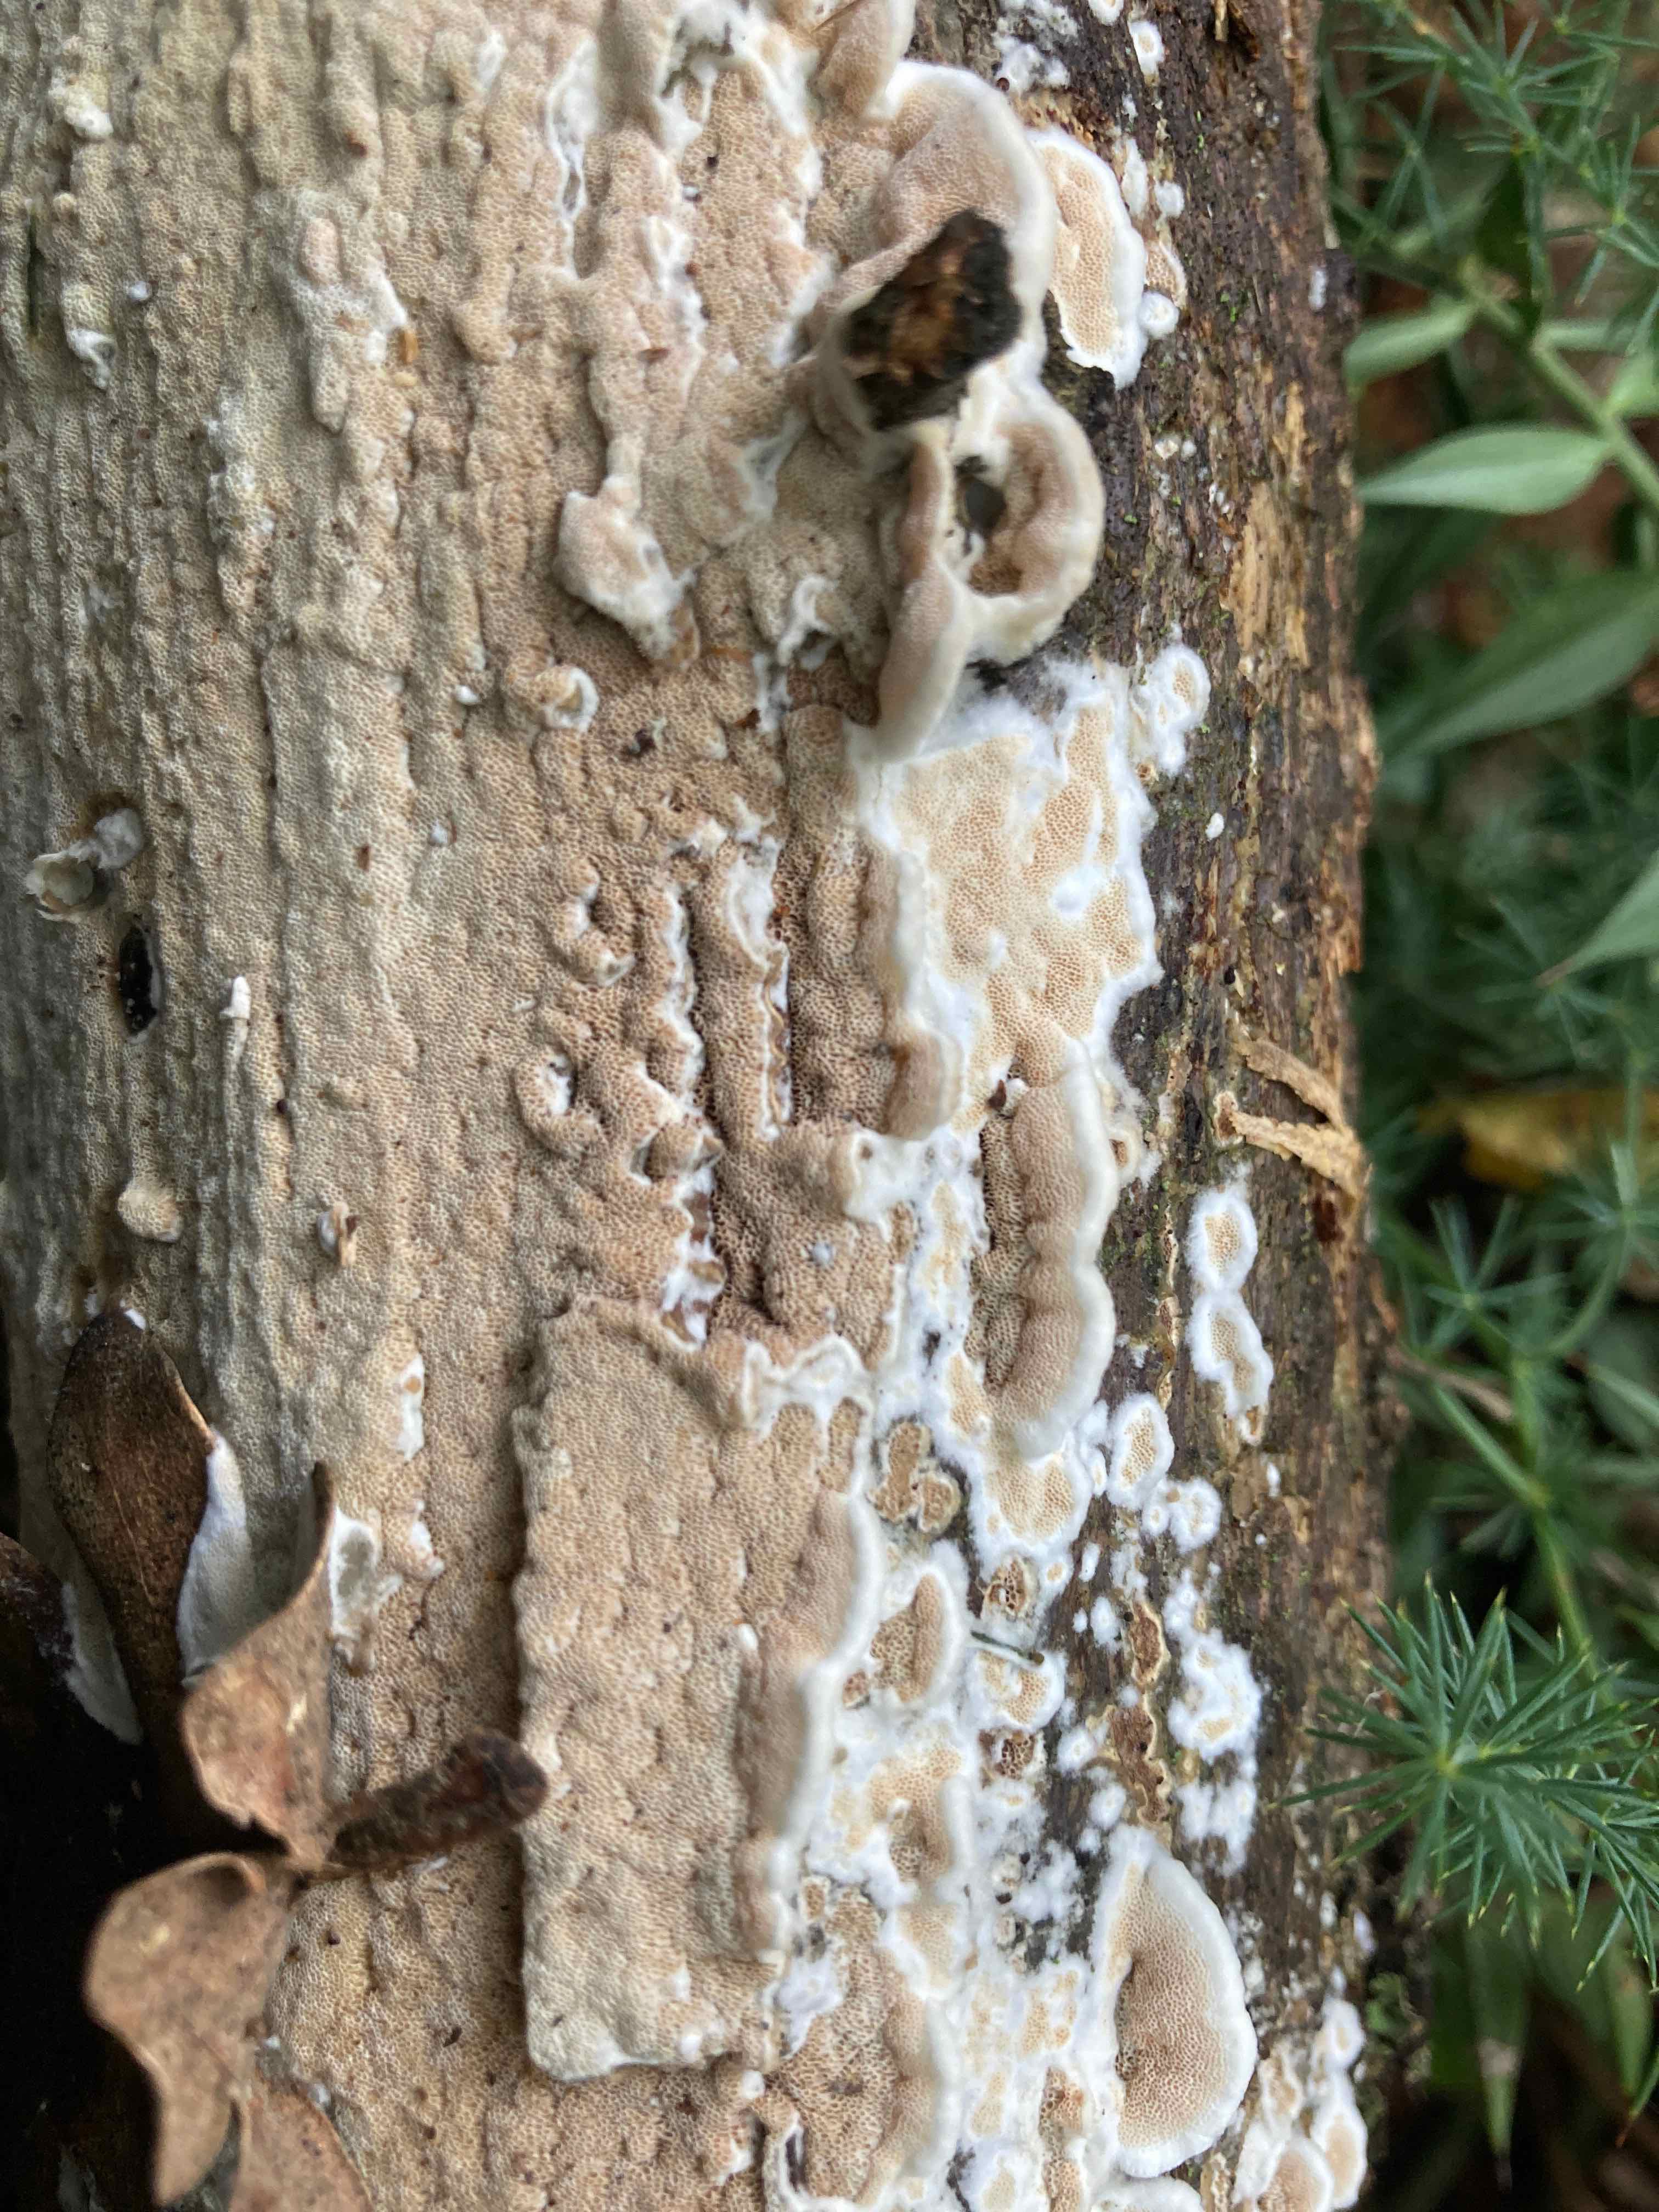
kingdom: Fungi
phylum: Basidiomycota
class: Agaricomycetes
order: Polyporales
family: Irpicaceae
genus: Vitreoporus
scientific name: Vitreoporus dichrous
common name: tofarvet foldporesvamp
